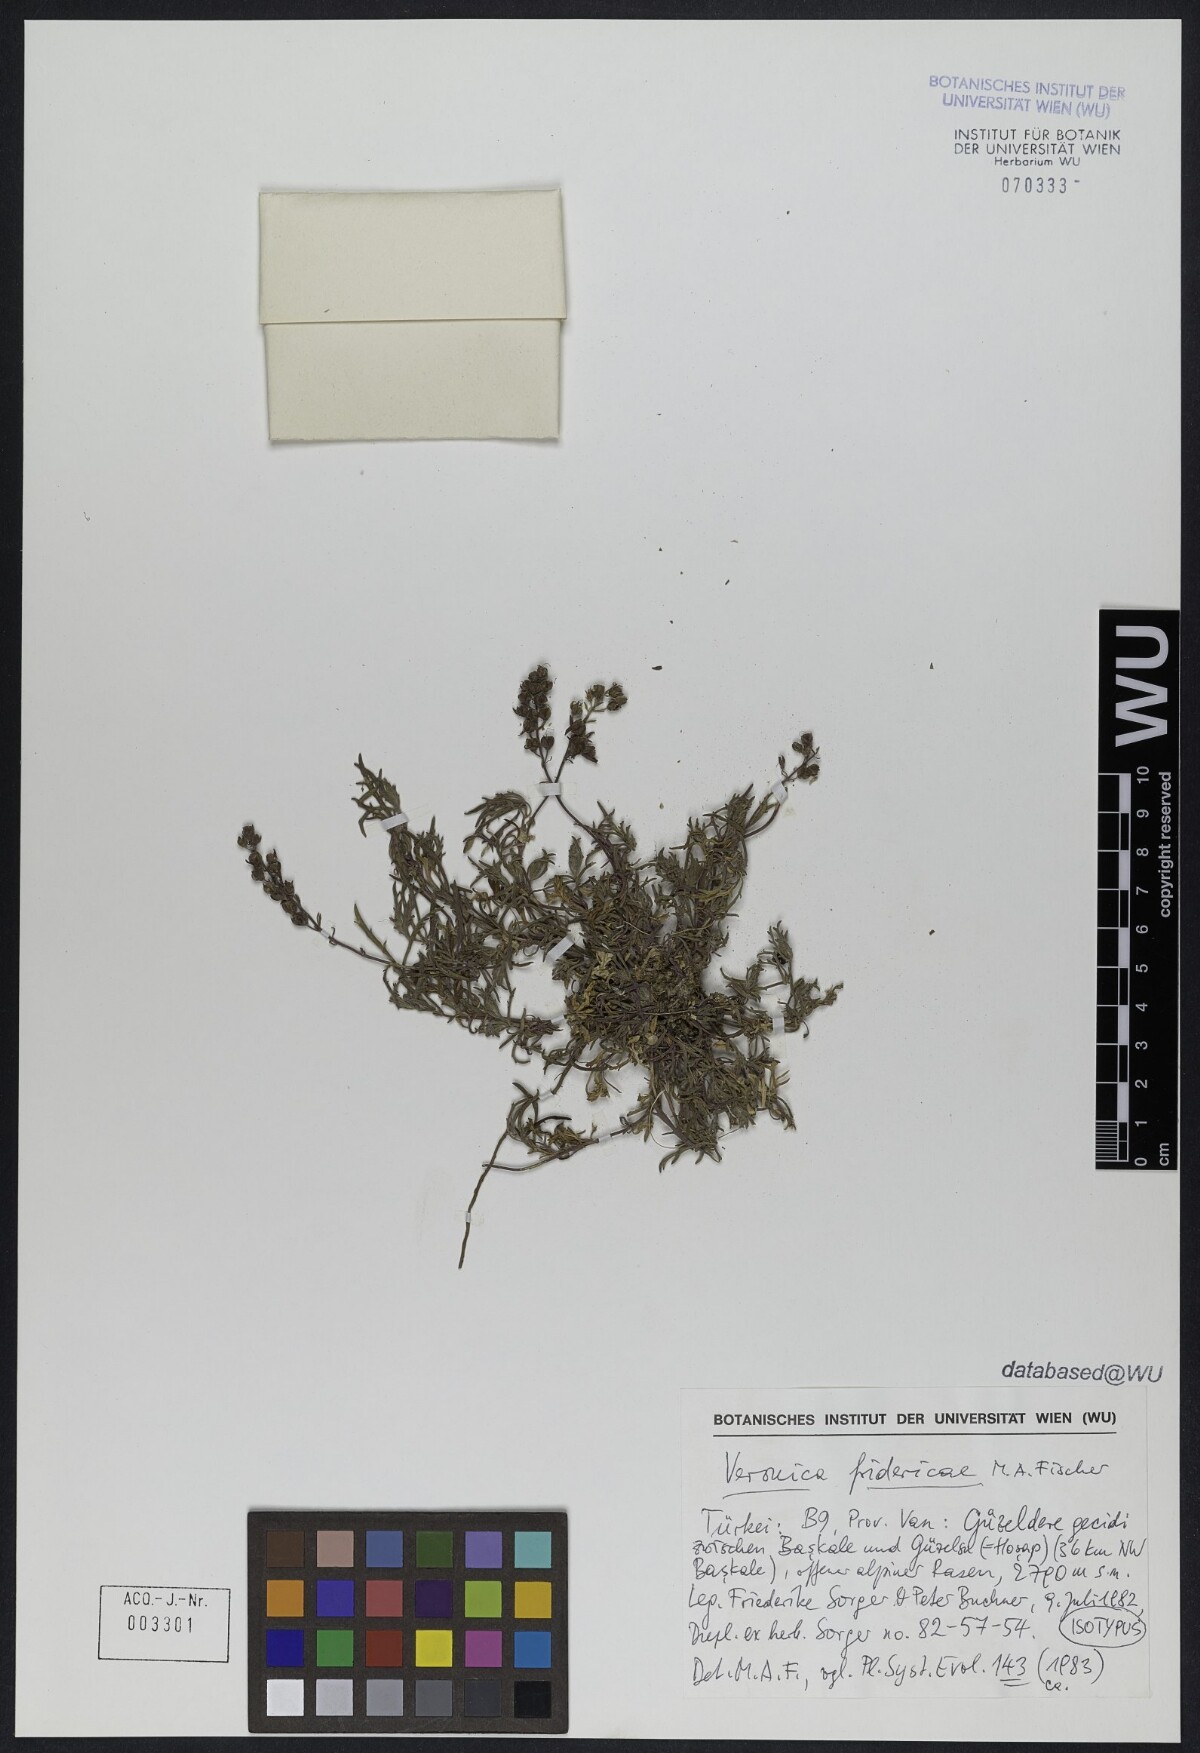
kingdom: Plantae
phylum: Tracheophyta
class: Magnoliopsida
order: Lamiales
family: Plantaginaceae
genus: Veronica
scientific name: Veronica fridericae
